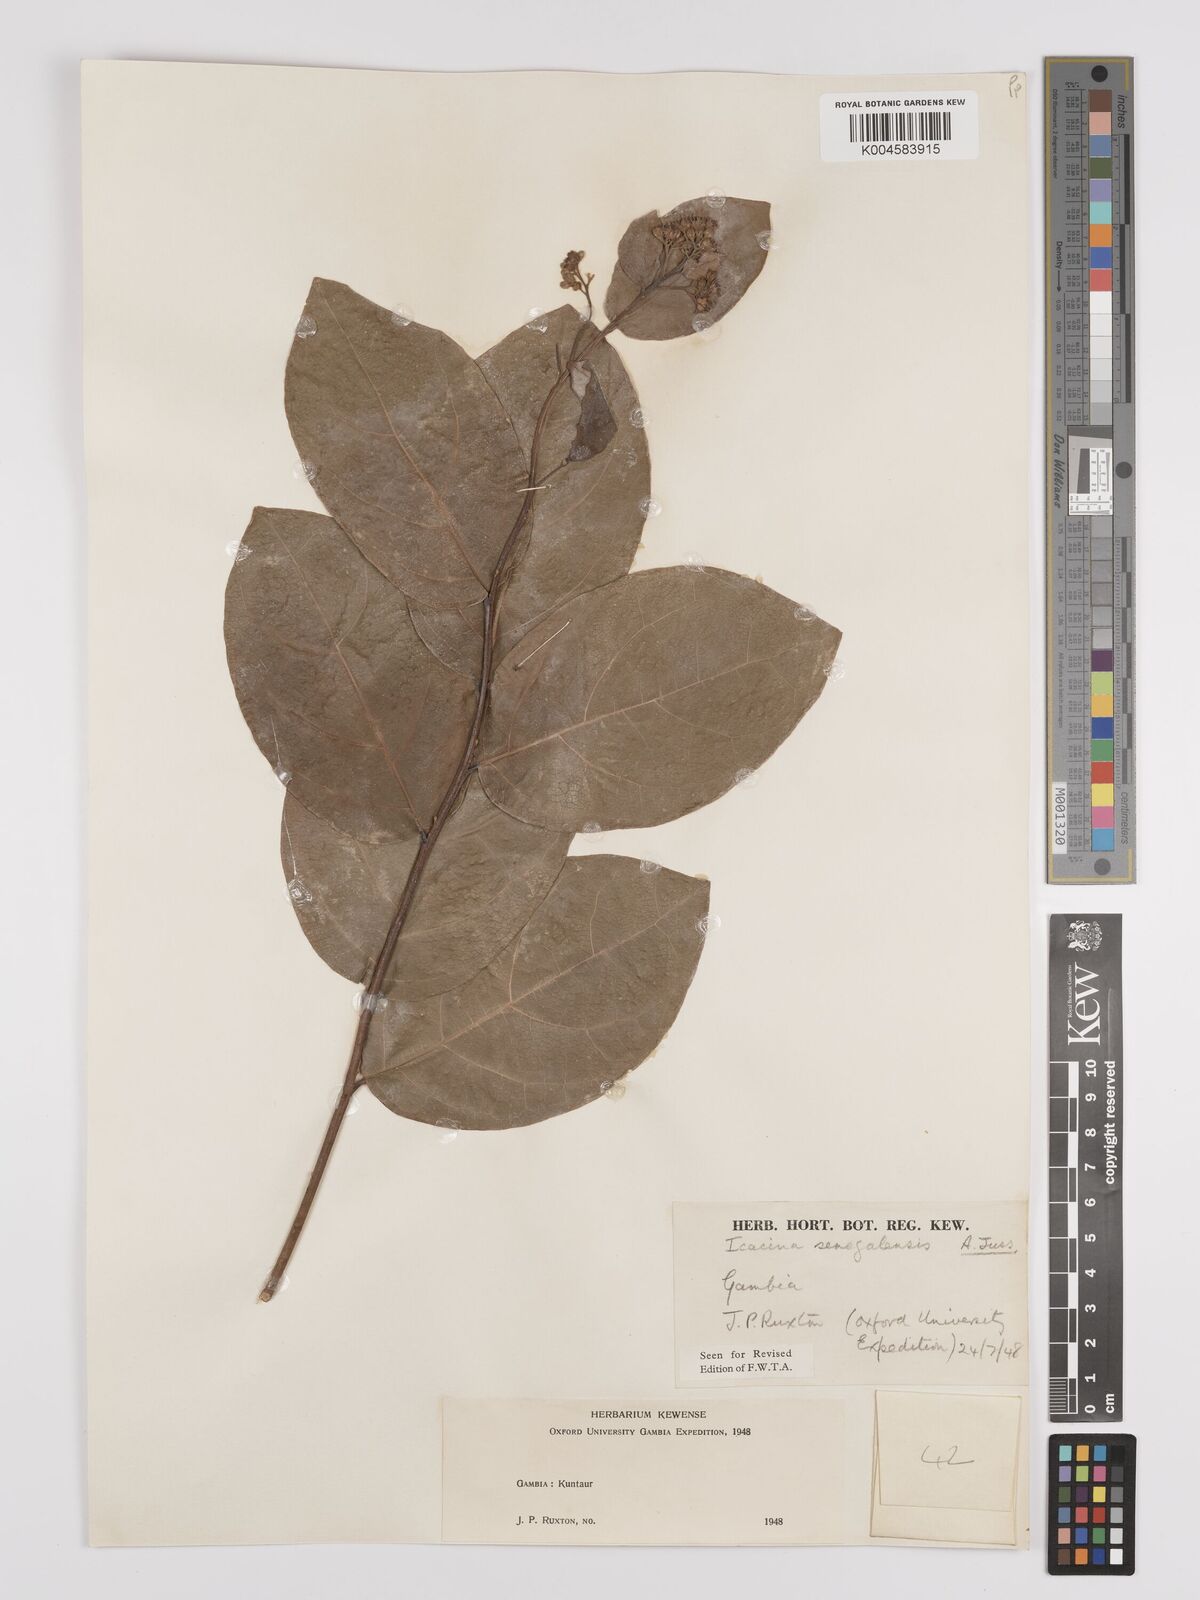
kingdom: Plantae
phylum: Tracheophyta
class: Magnoliopsida
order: Icacinales
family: Icacinaceae
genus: Icacina
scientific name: Icacina oliviformis
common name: False yam
